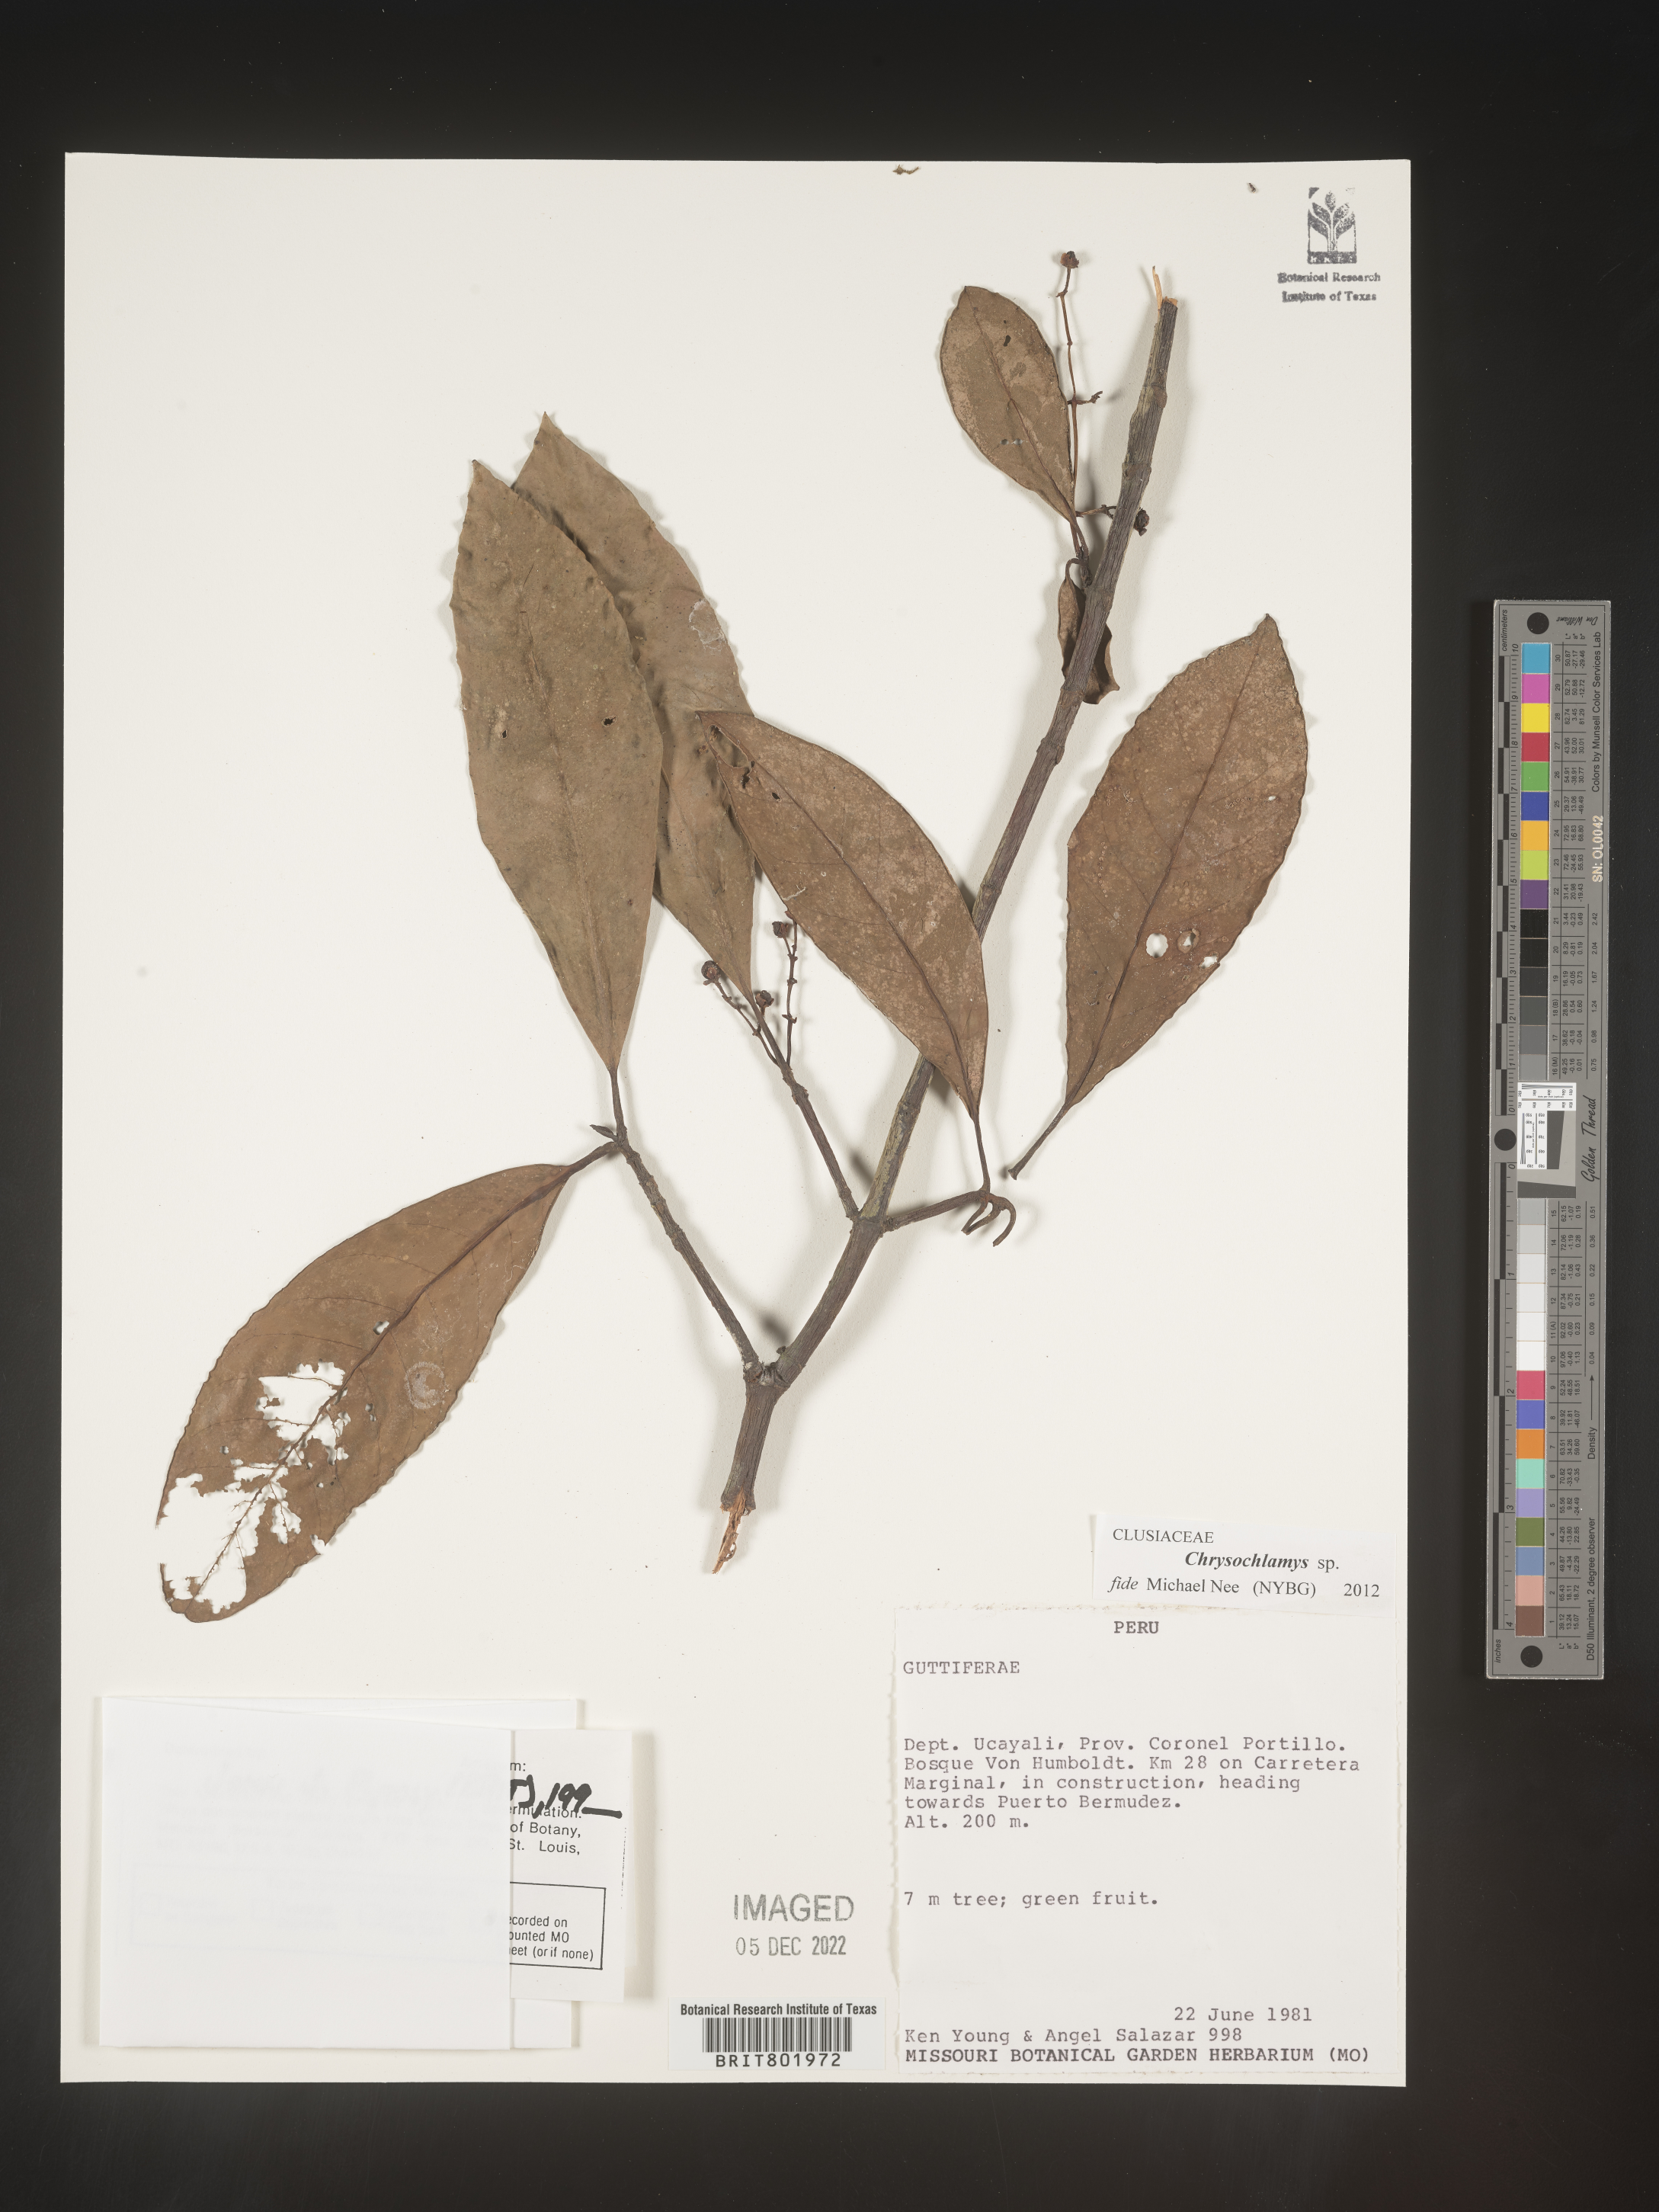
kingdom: Plantae
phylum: Tracheophyta
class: Magnoliopsida
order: Malpighiales
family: Clusiaceae
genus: Chrysochlamys
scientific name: Chrysochlamys
